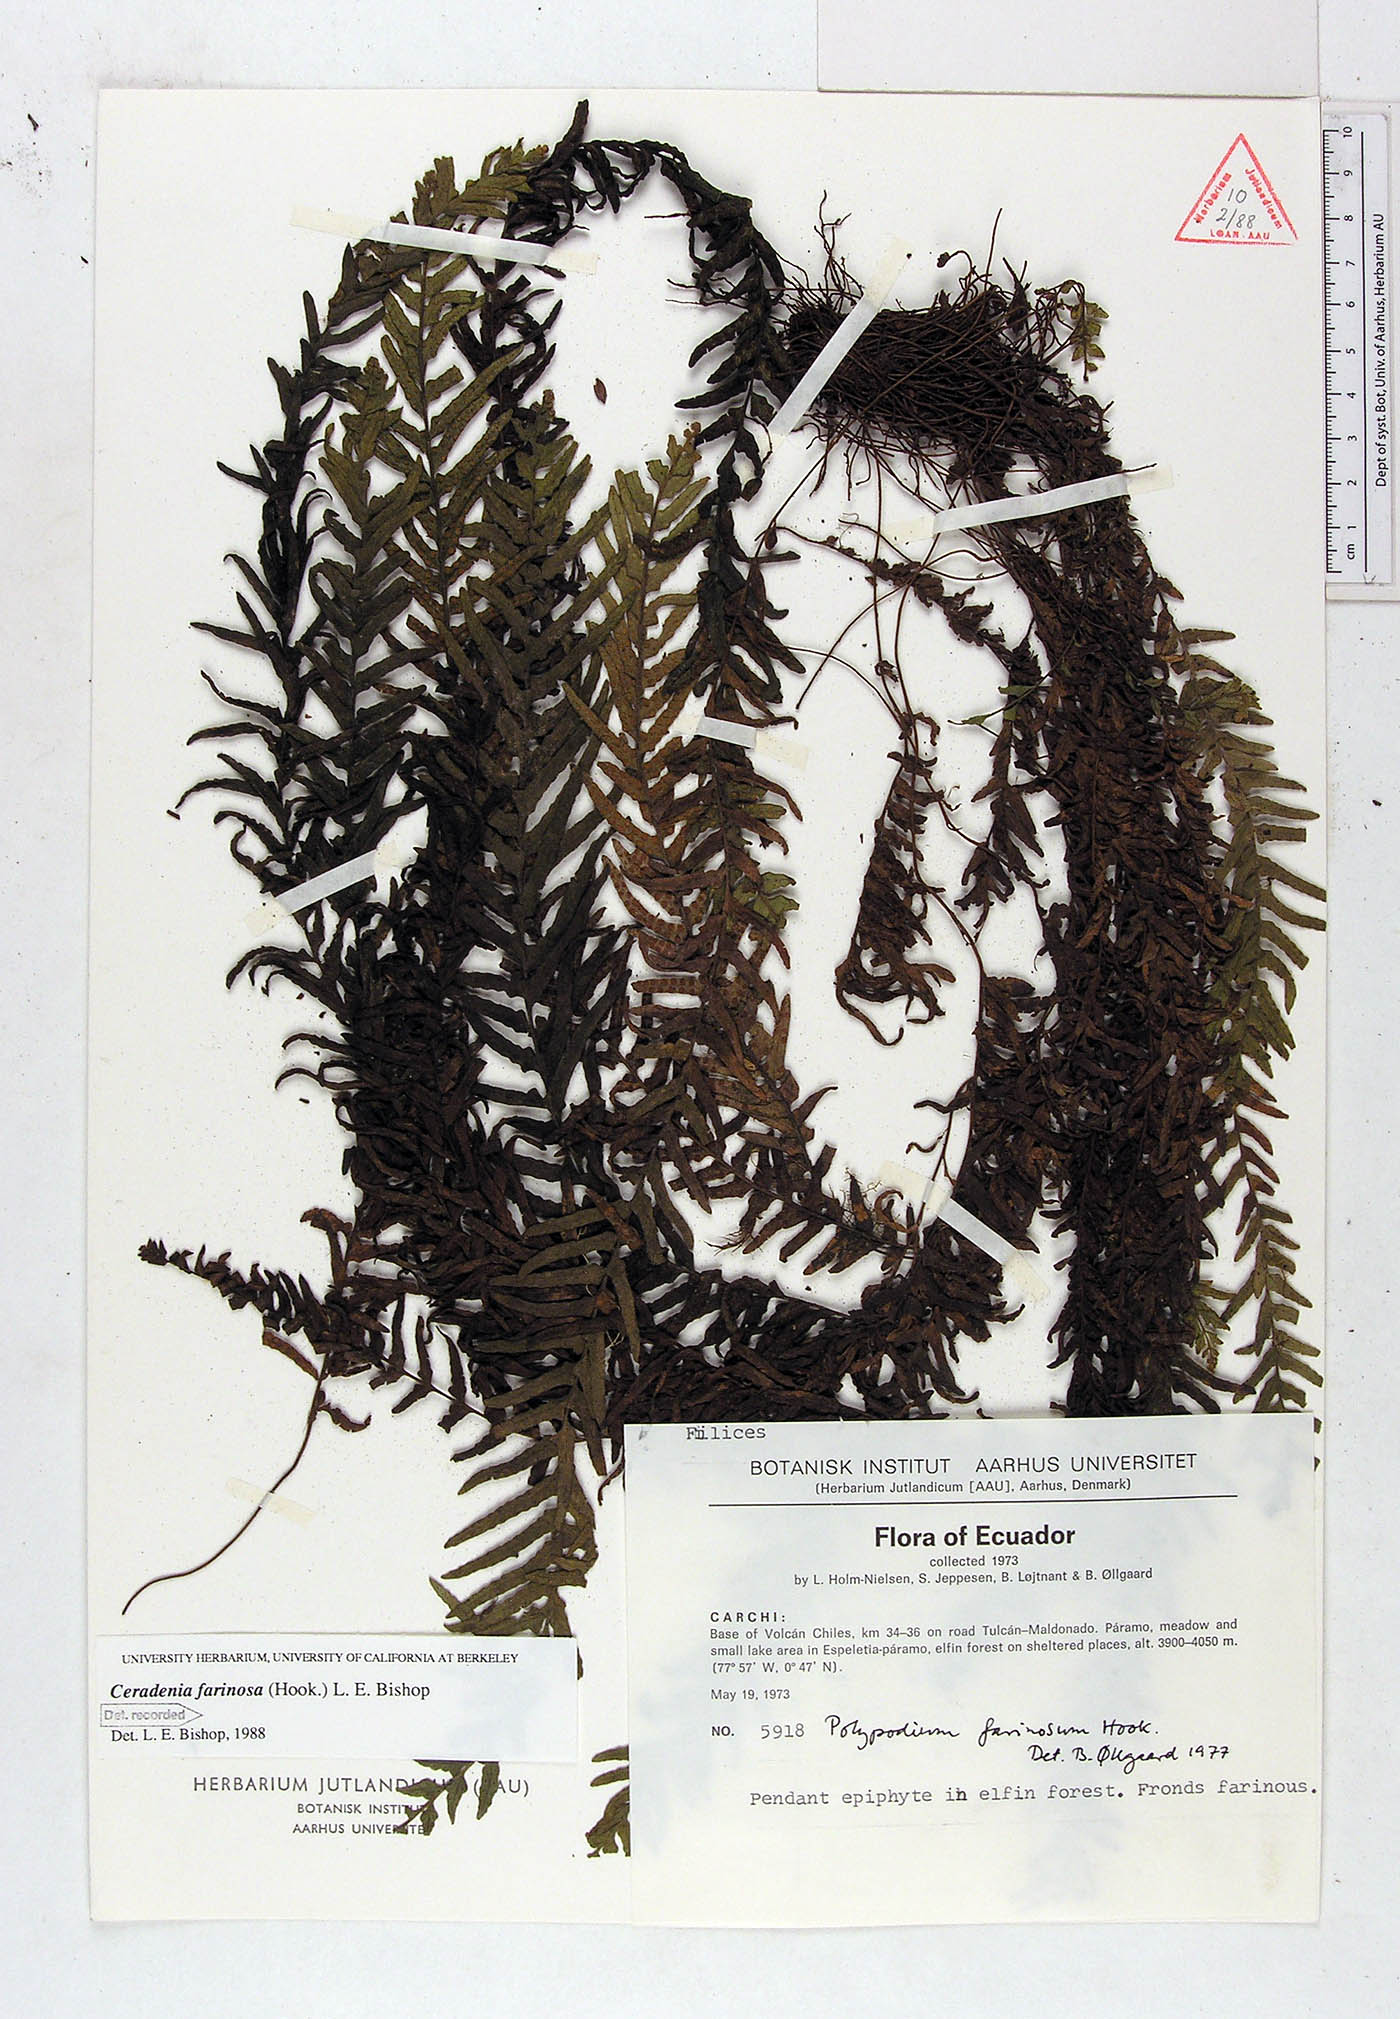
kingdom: Plantae
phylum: Tracheophyta
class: Polypodiopsida
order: Polypodiales
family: Polypodiaceae
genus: Ceradenia
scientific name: Ceradenia farinosa
